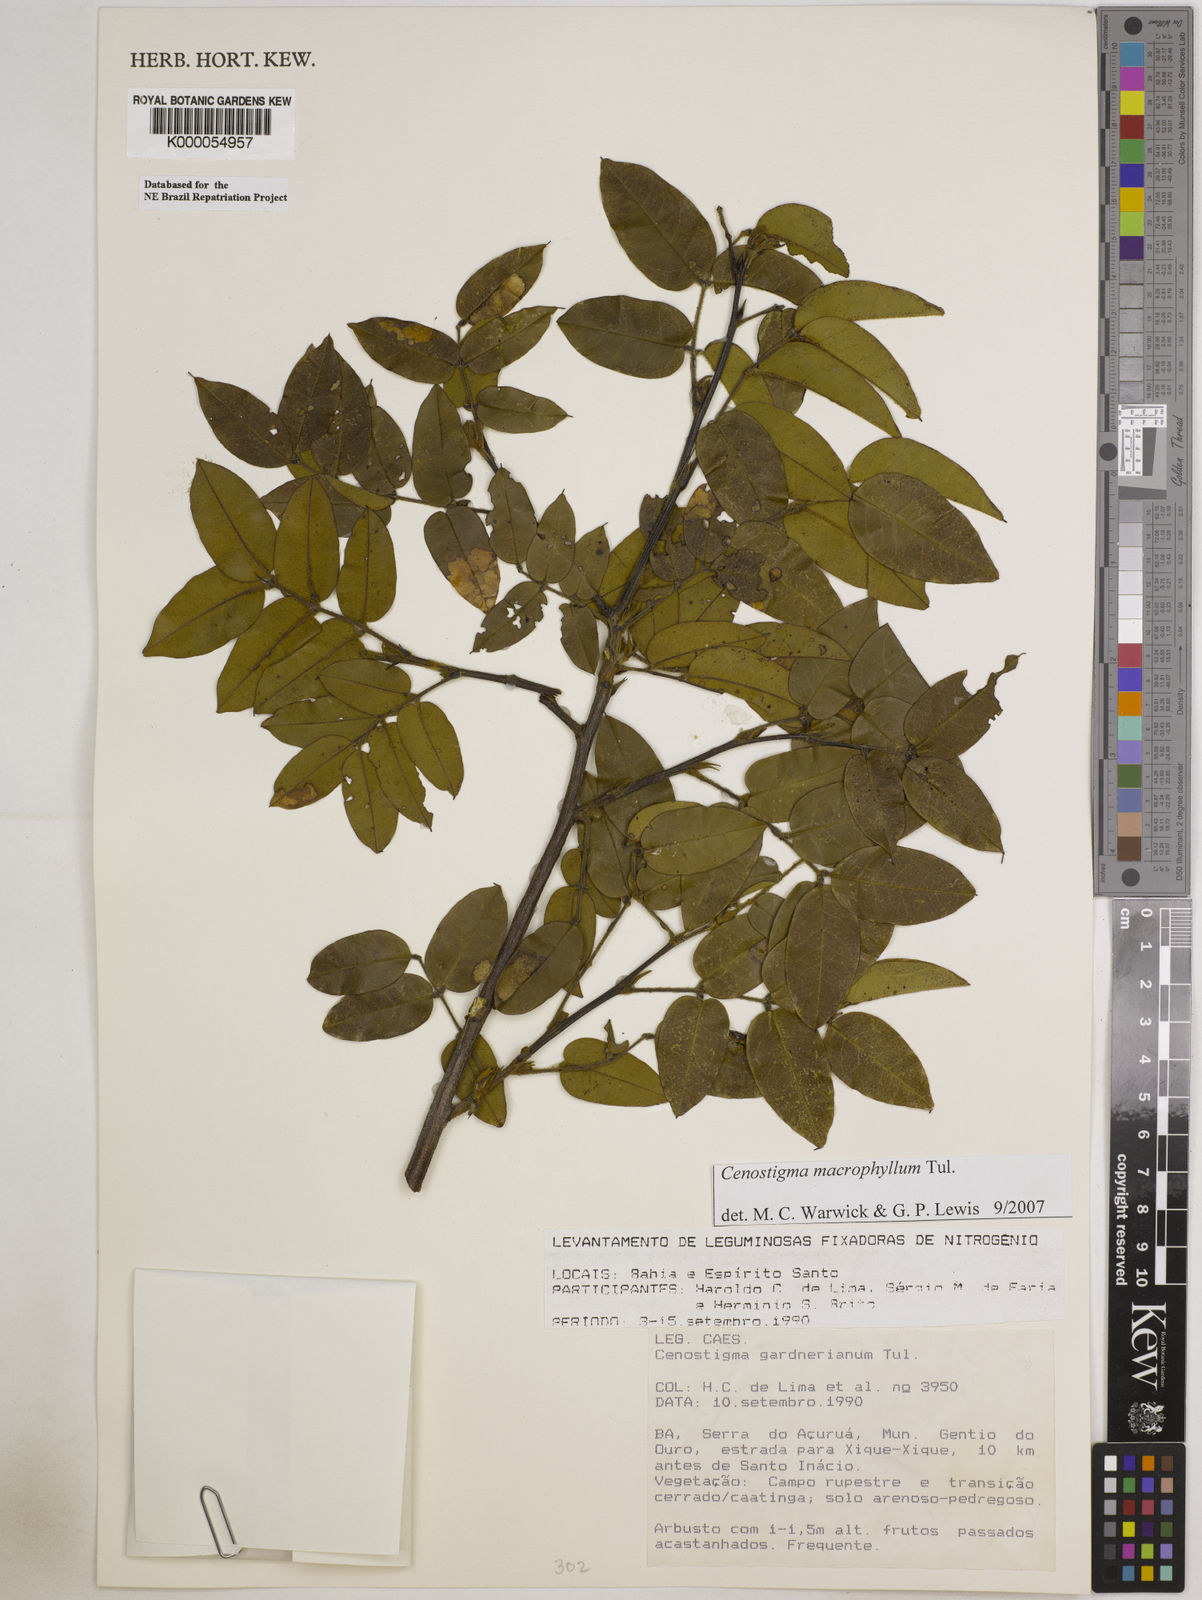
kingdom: Plantae
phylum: Tracheophyta
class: Magnoliopsida
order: Fabales
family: Fabaceae
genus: Cenostigma
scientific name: Cenostigma macrophyllum
